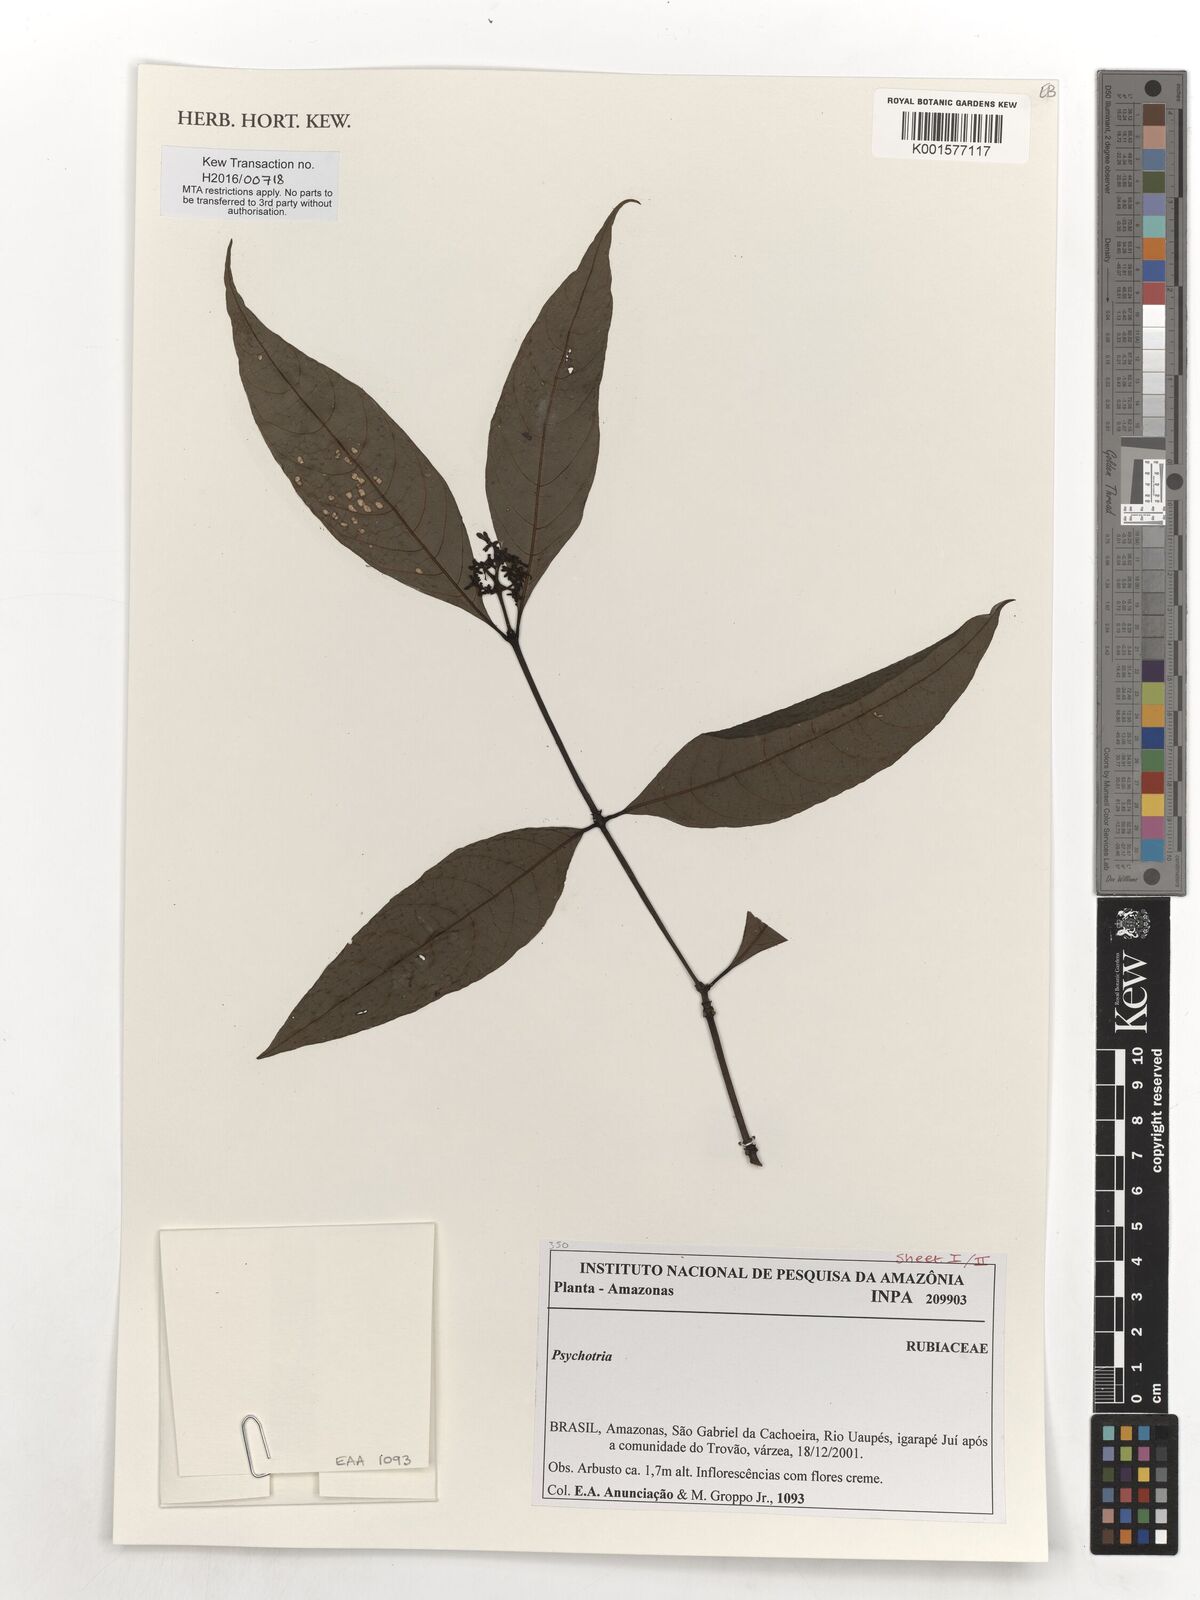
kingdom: Plantae
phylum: Tracheophyta
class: Magnoliopsida
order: Gentianales
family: Rubiaceae
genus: Psychotria
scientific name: Psychotria
